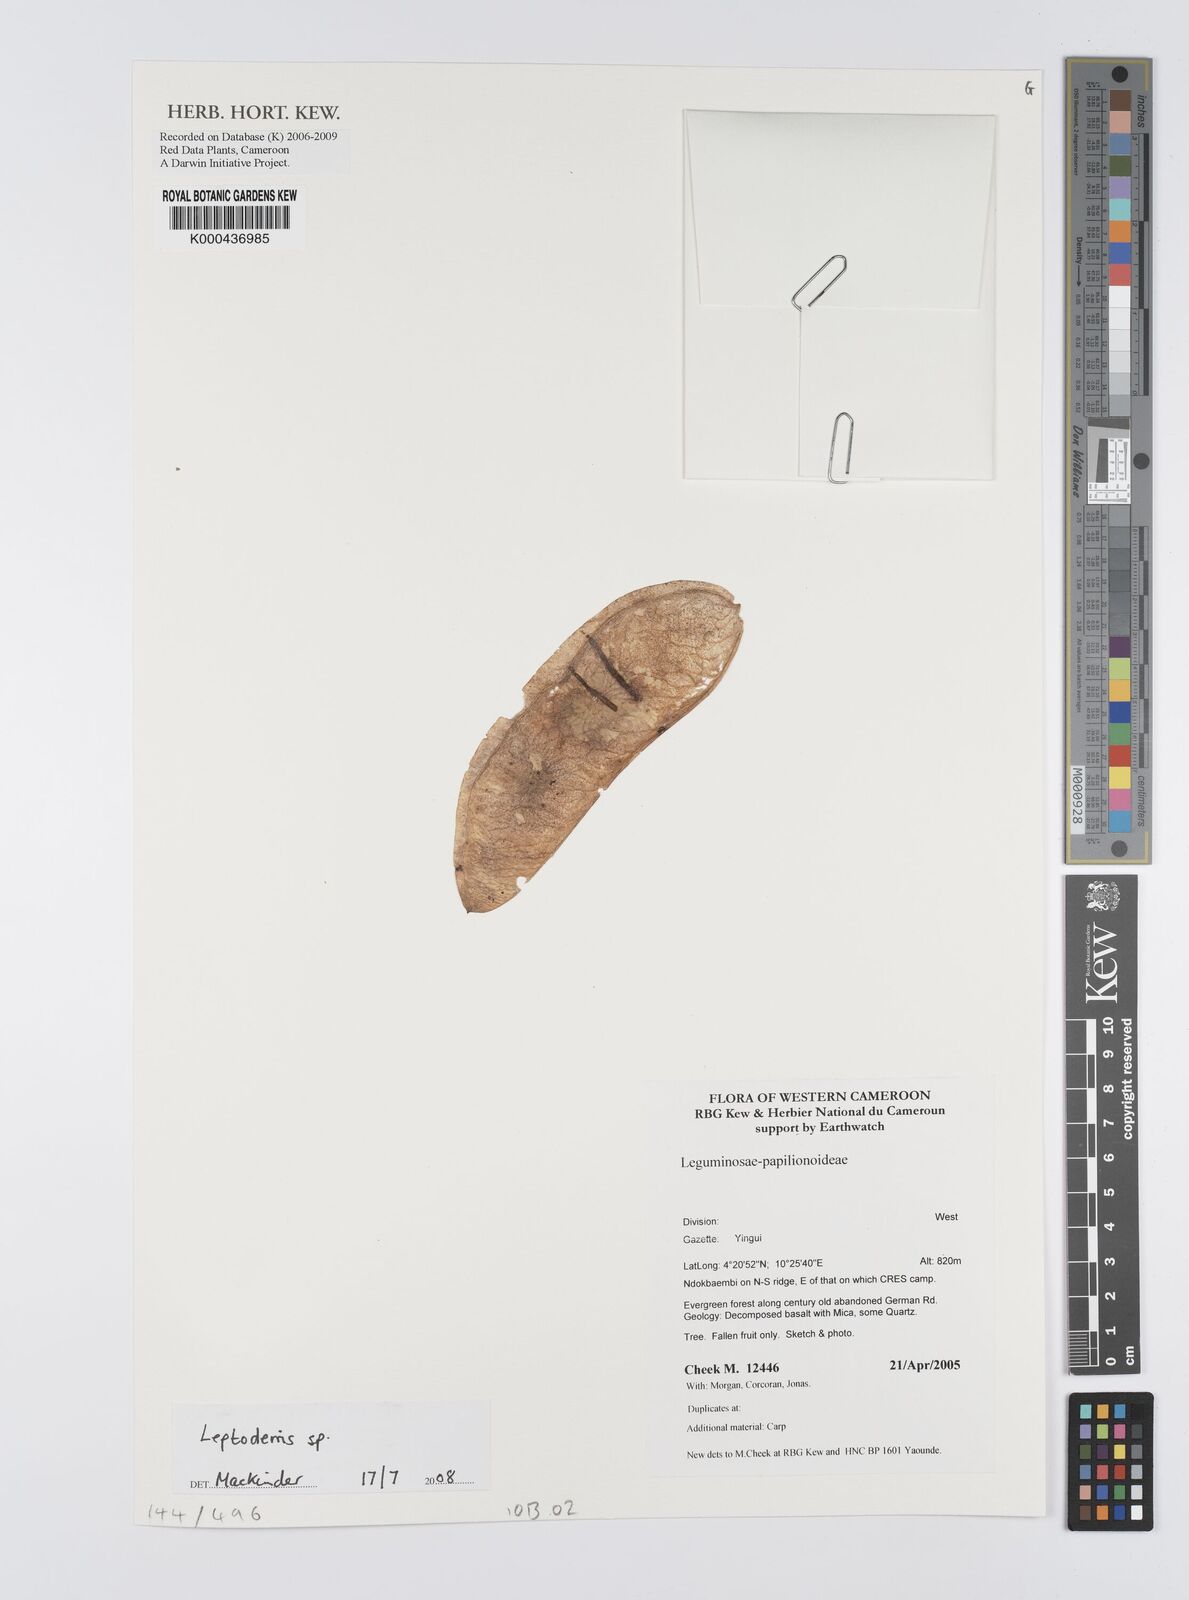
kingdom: Plantae
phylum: Tracheophyta
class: Magnoliopsida
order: Fabales
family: Fabaceae
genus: Leptoderris
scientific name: Leptoderris
